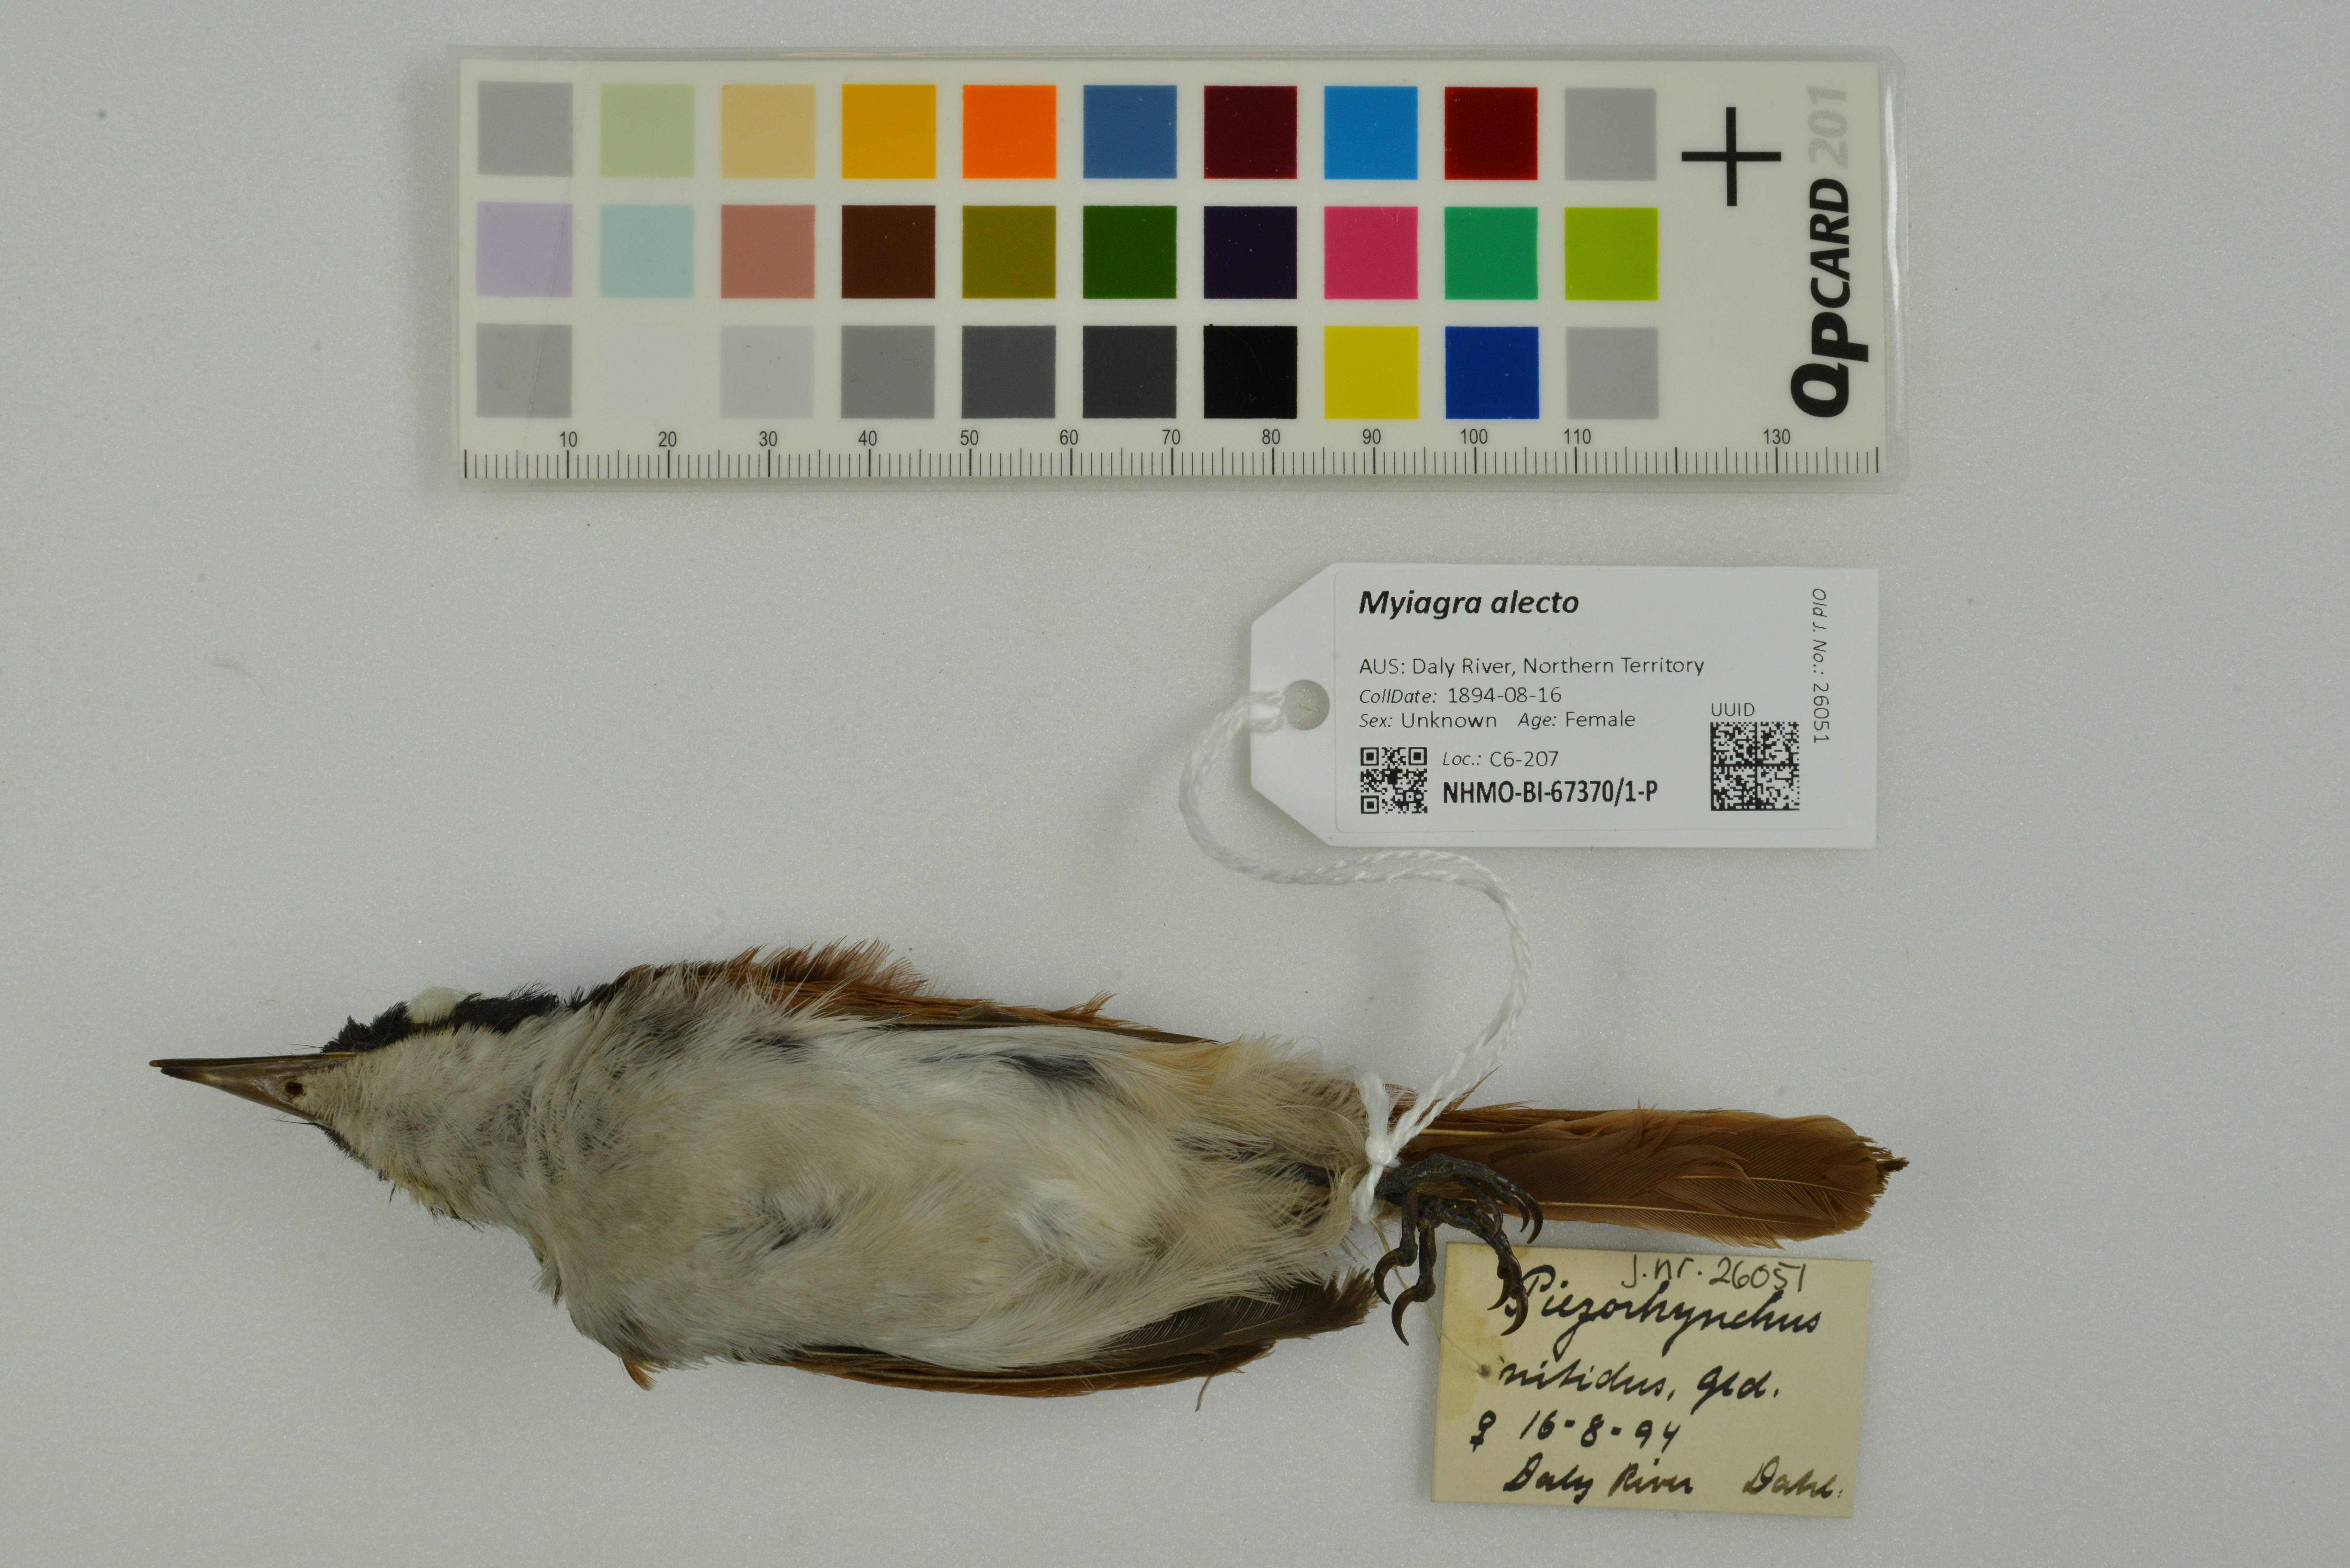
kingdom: Animalia
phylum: Chordata
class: Aves
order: Passeriformes
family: Monarchidae
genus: Myiagra
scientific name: Myiagra alecto
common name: Shining flycatcher
